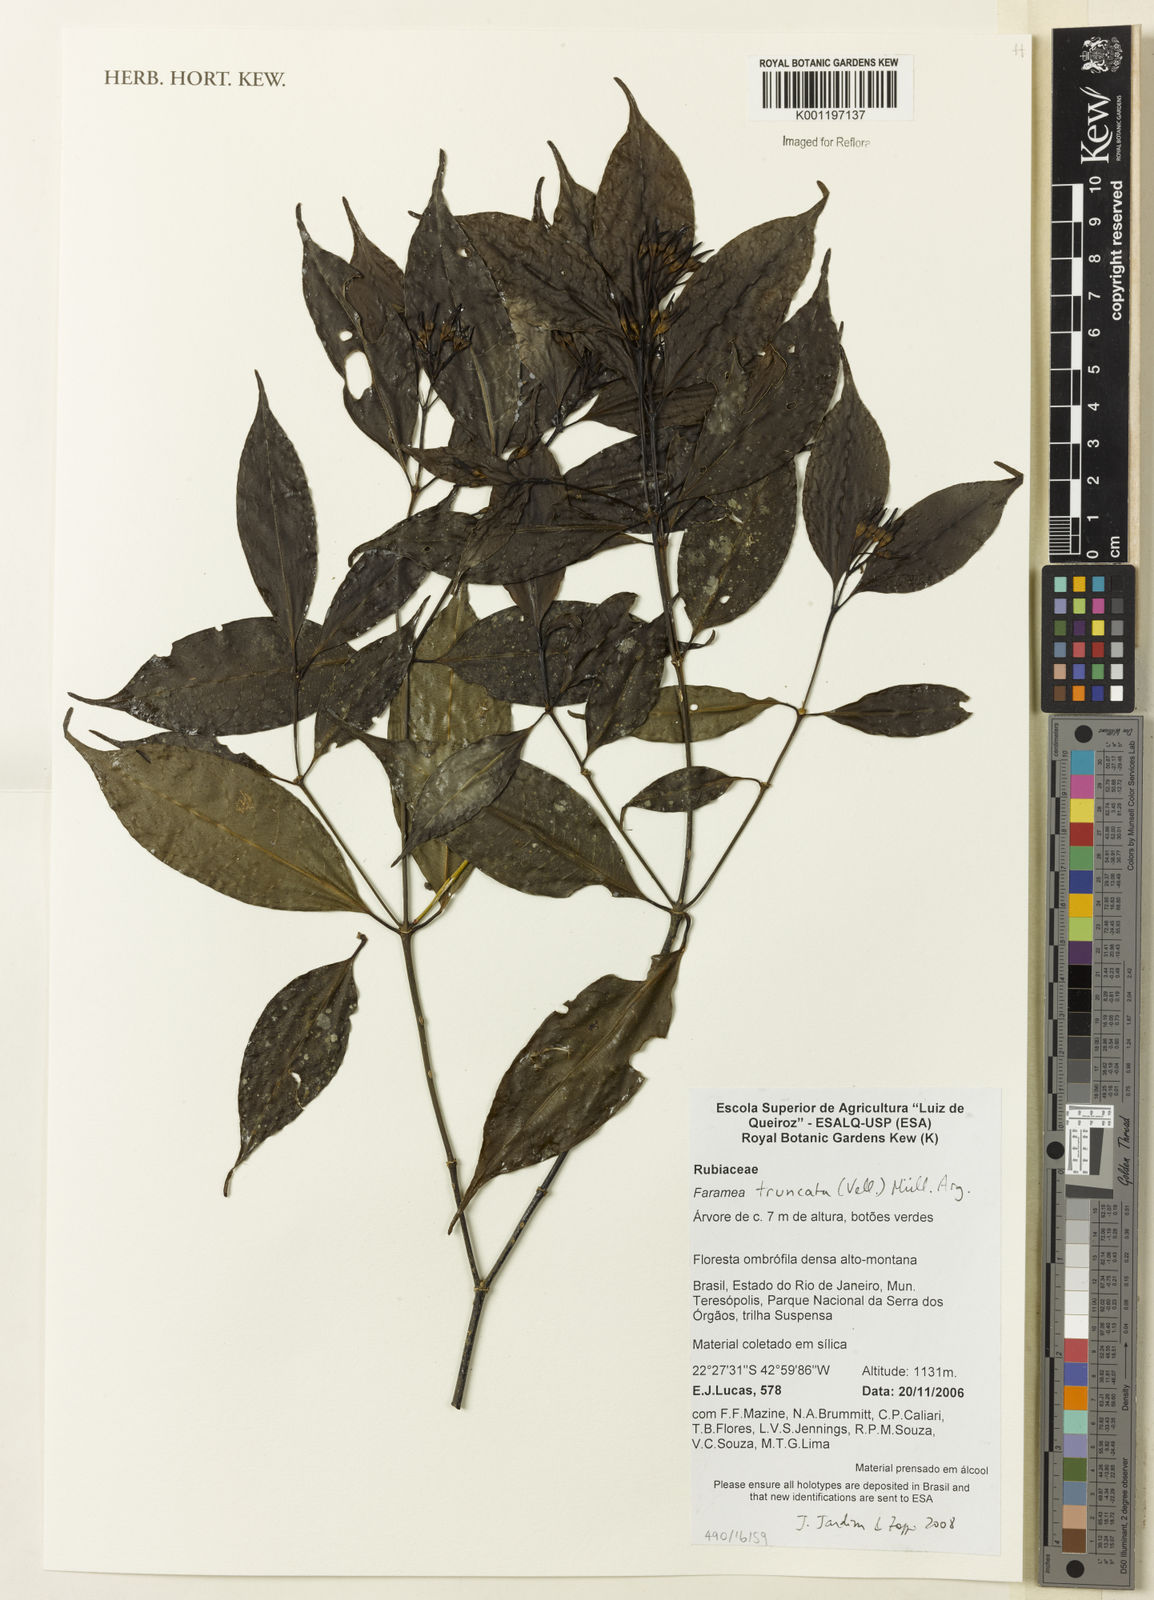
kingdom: Plantae
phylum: Tracheophyta
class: Magnoliopsida
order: Gentianales
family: Rubiaceae
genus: Faramea
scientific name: Faramea caudata
